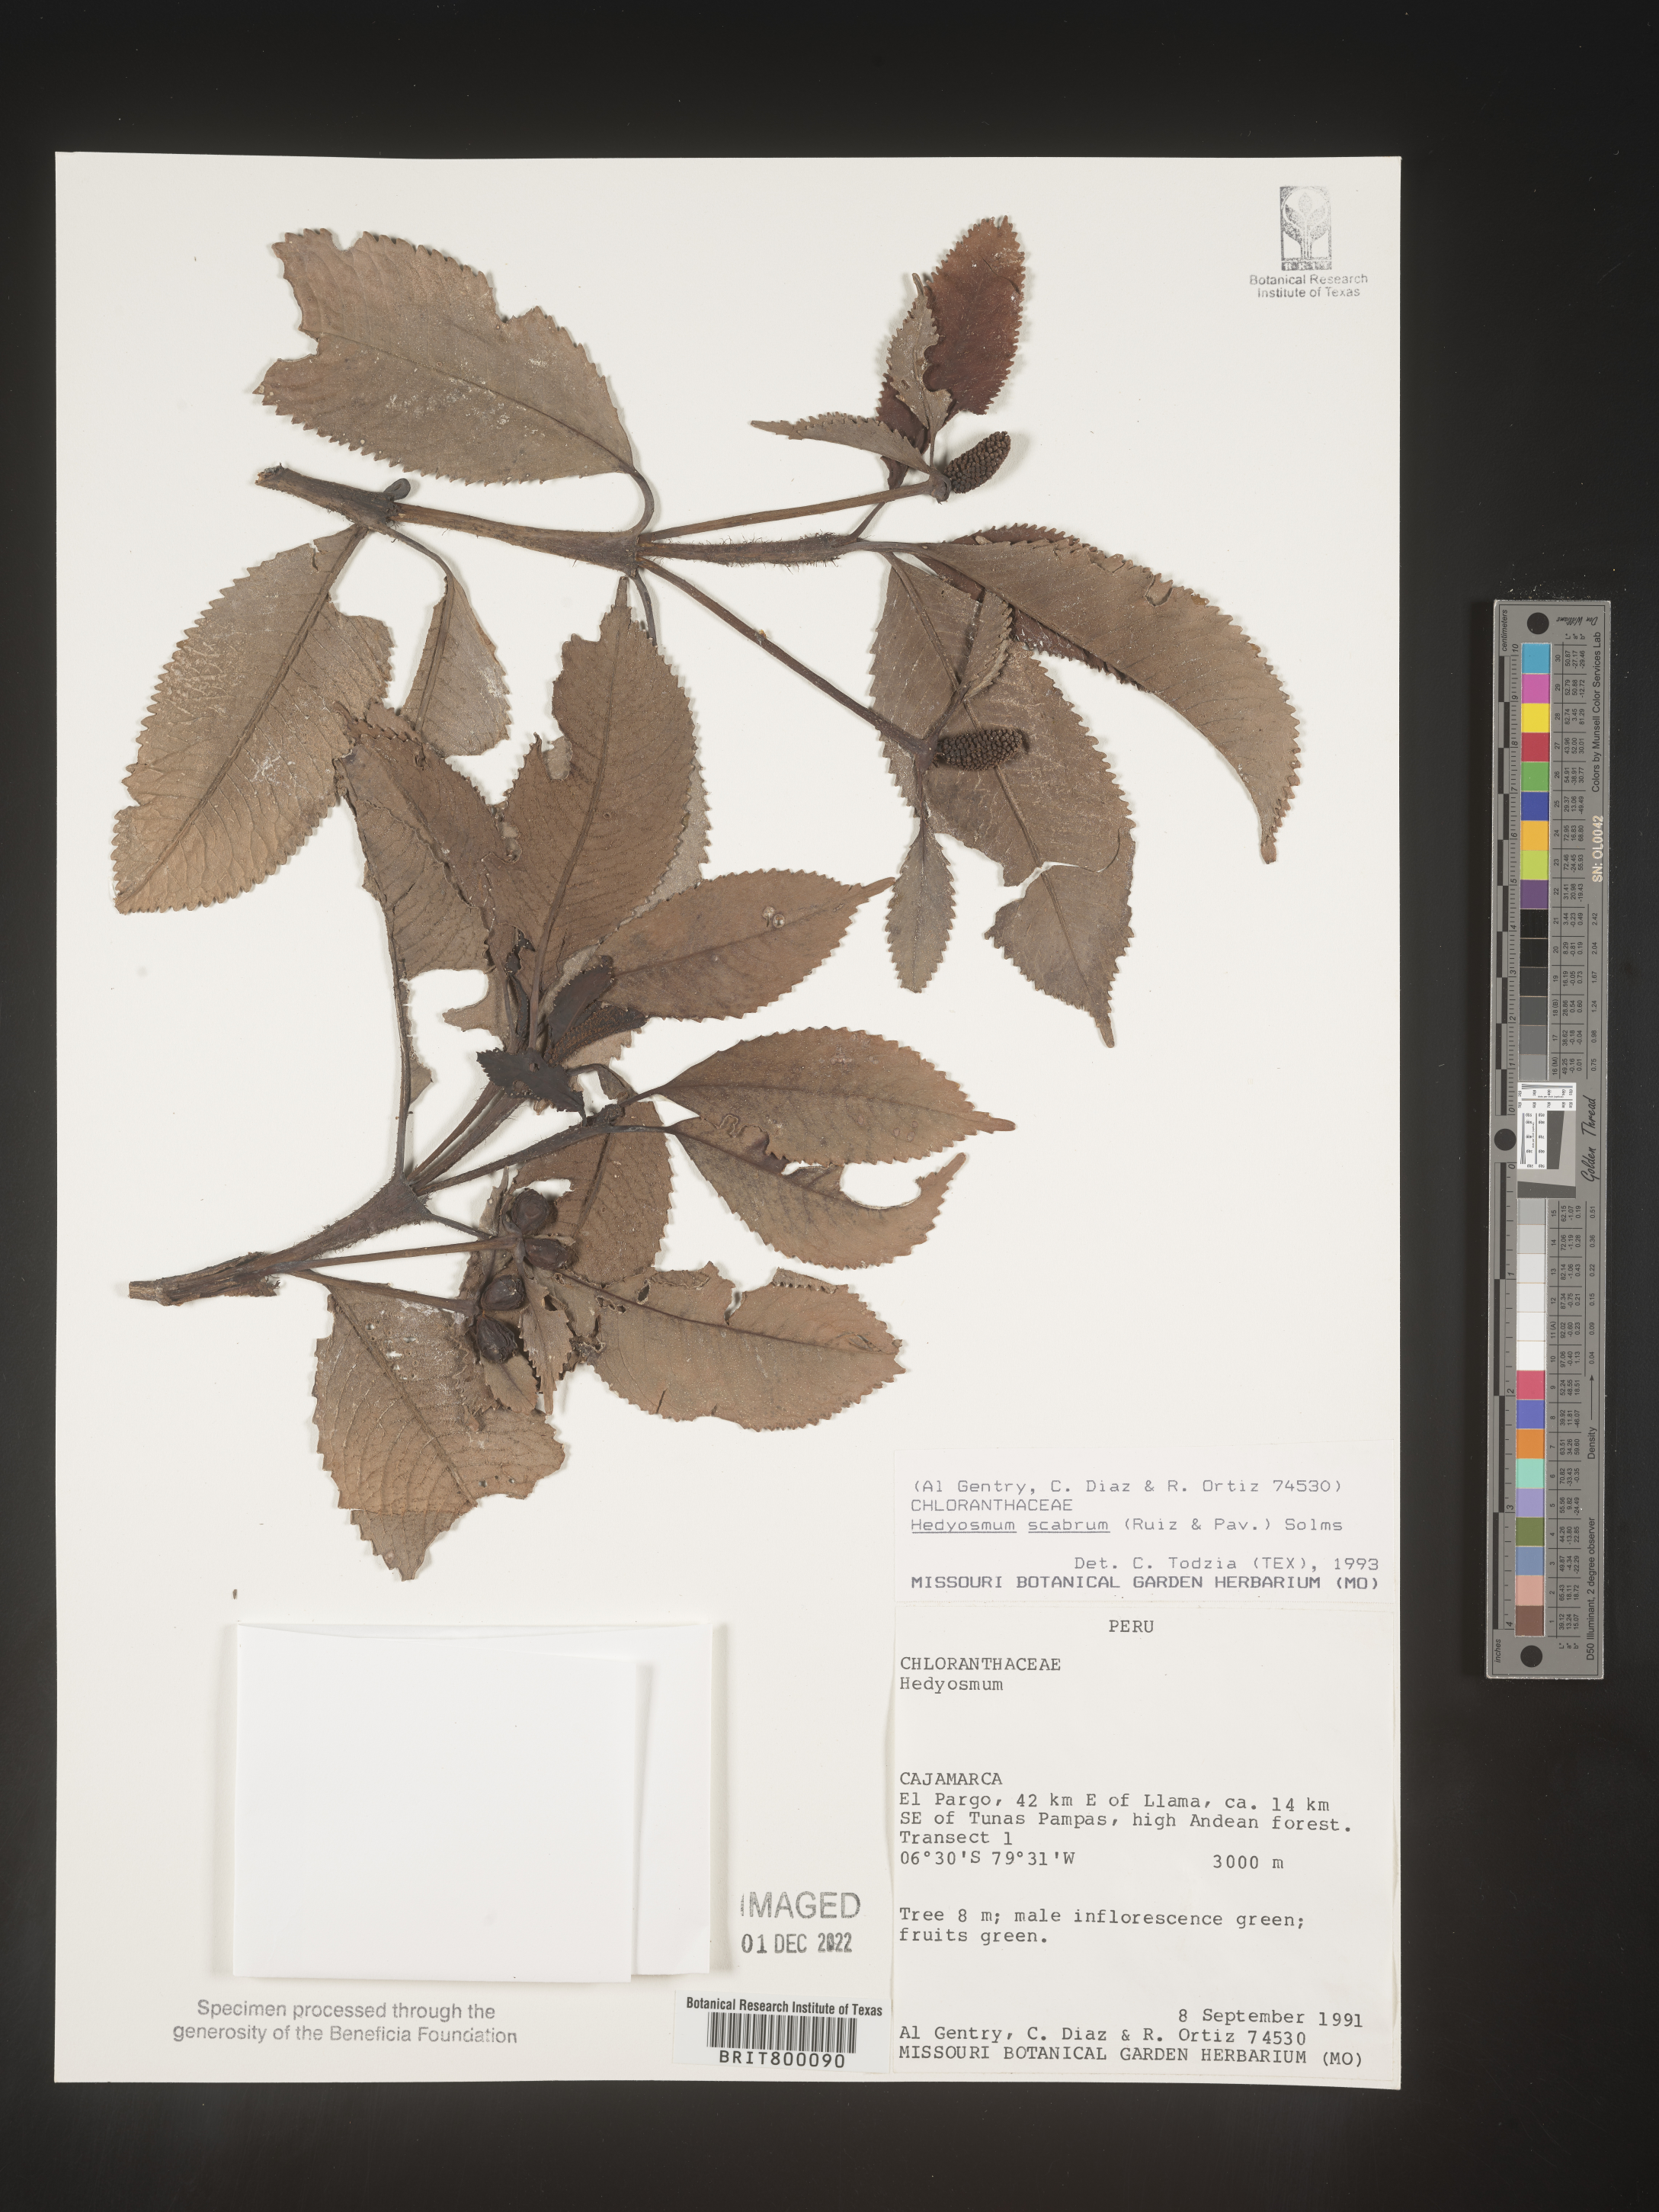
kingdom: Plantae
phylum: Tracheophyta
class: Magnoliopsida
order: Chloranthales
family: Chloranthaceae
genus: Hedyosmum
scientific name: Hedyosmum
